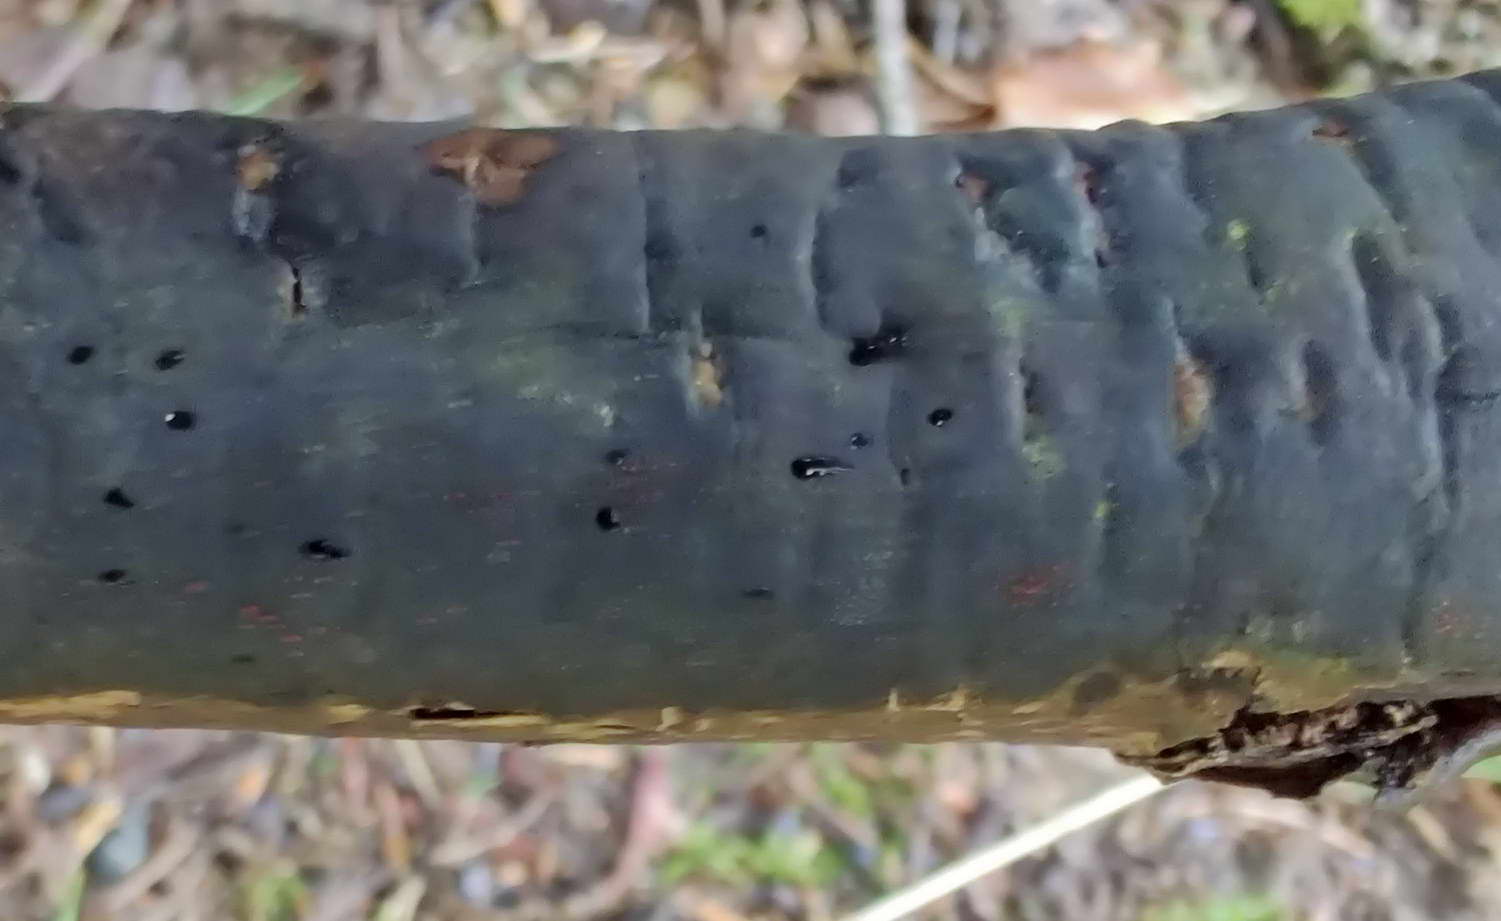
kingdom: Fungi
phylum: Ascomycota
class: Sordariomycetes
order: Hypocreales
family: Nectriaceae
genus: Dialonectria
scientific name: Dialonectria episphaeria
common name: kulskorpe-cinnobersvamp
